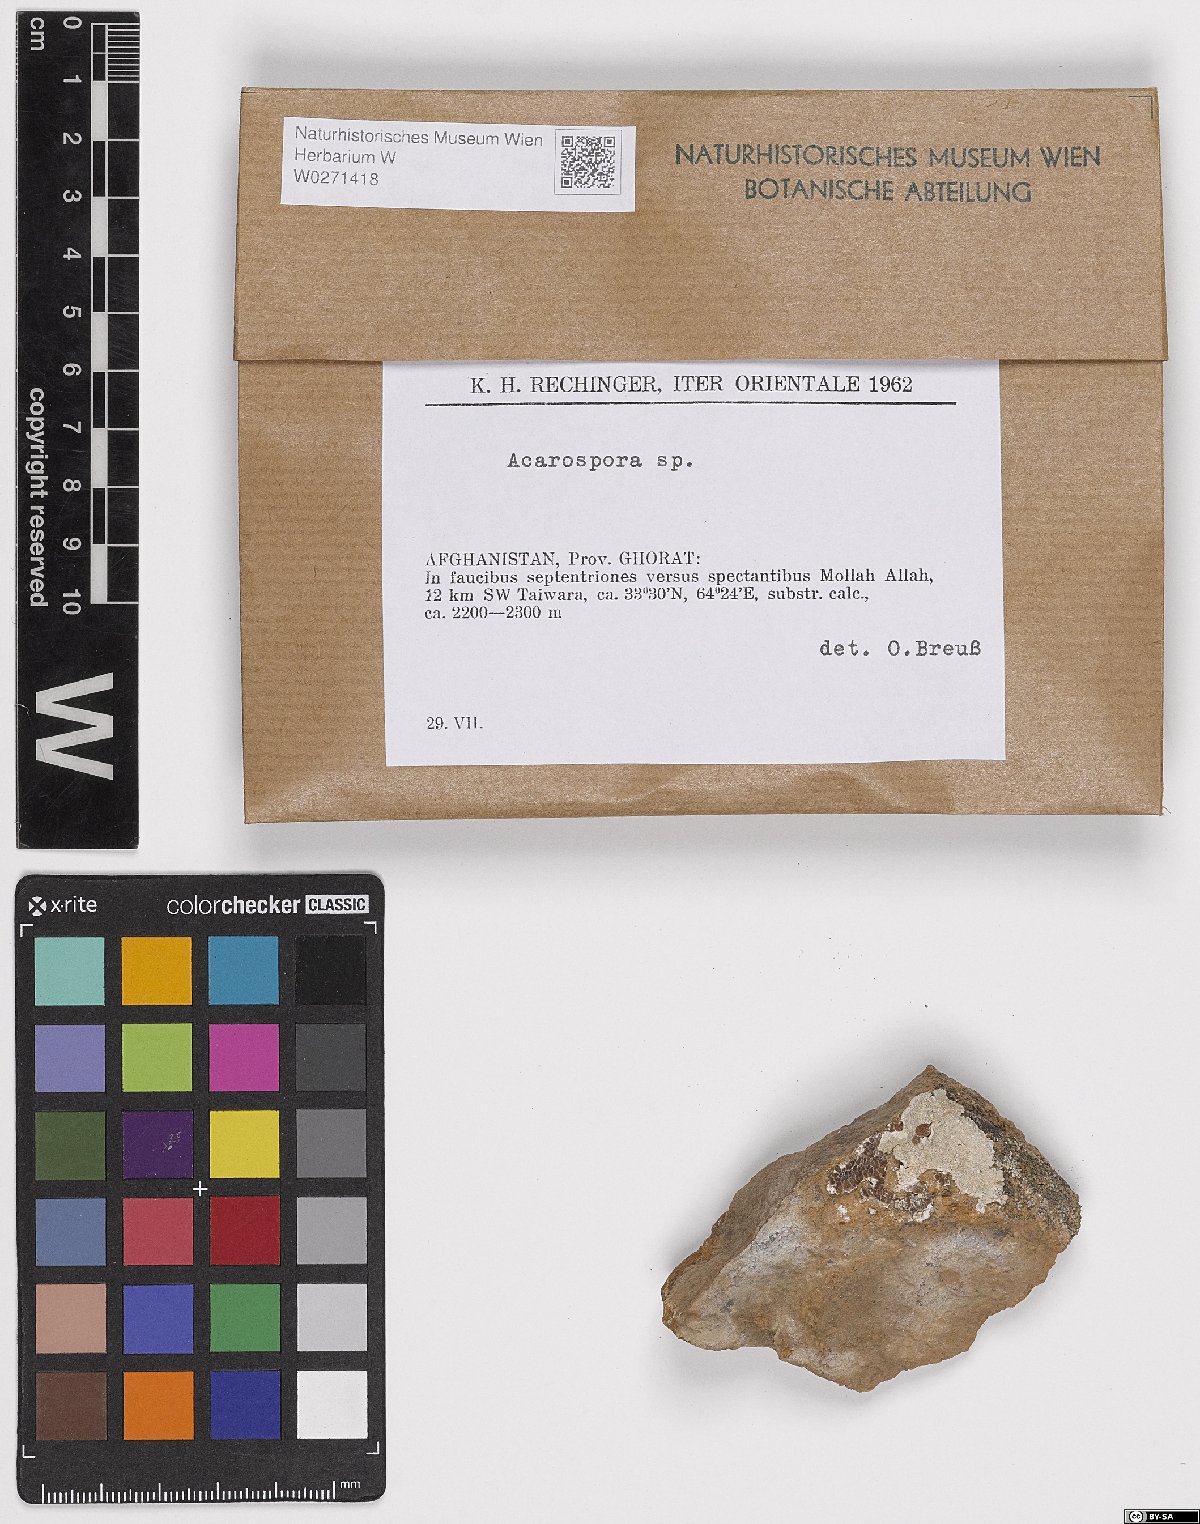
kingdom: Fungi
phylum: Ascomycota
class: Lecanoromycetes
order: Acarosporales
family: Acarosporaceae
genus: Acarospora
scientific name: Acarospora
